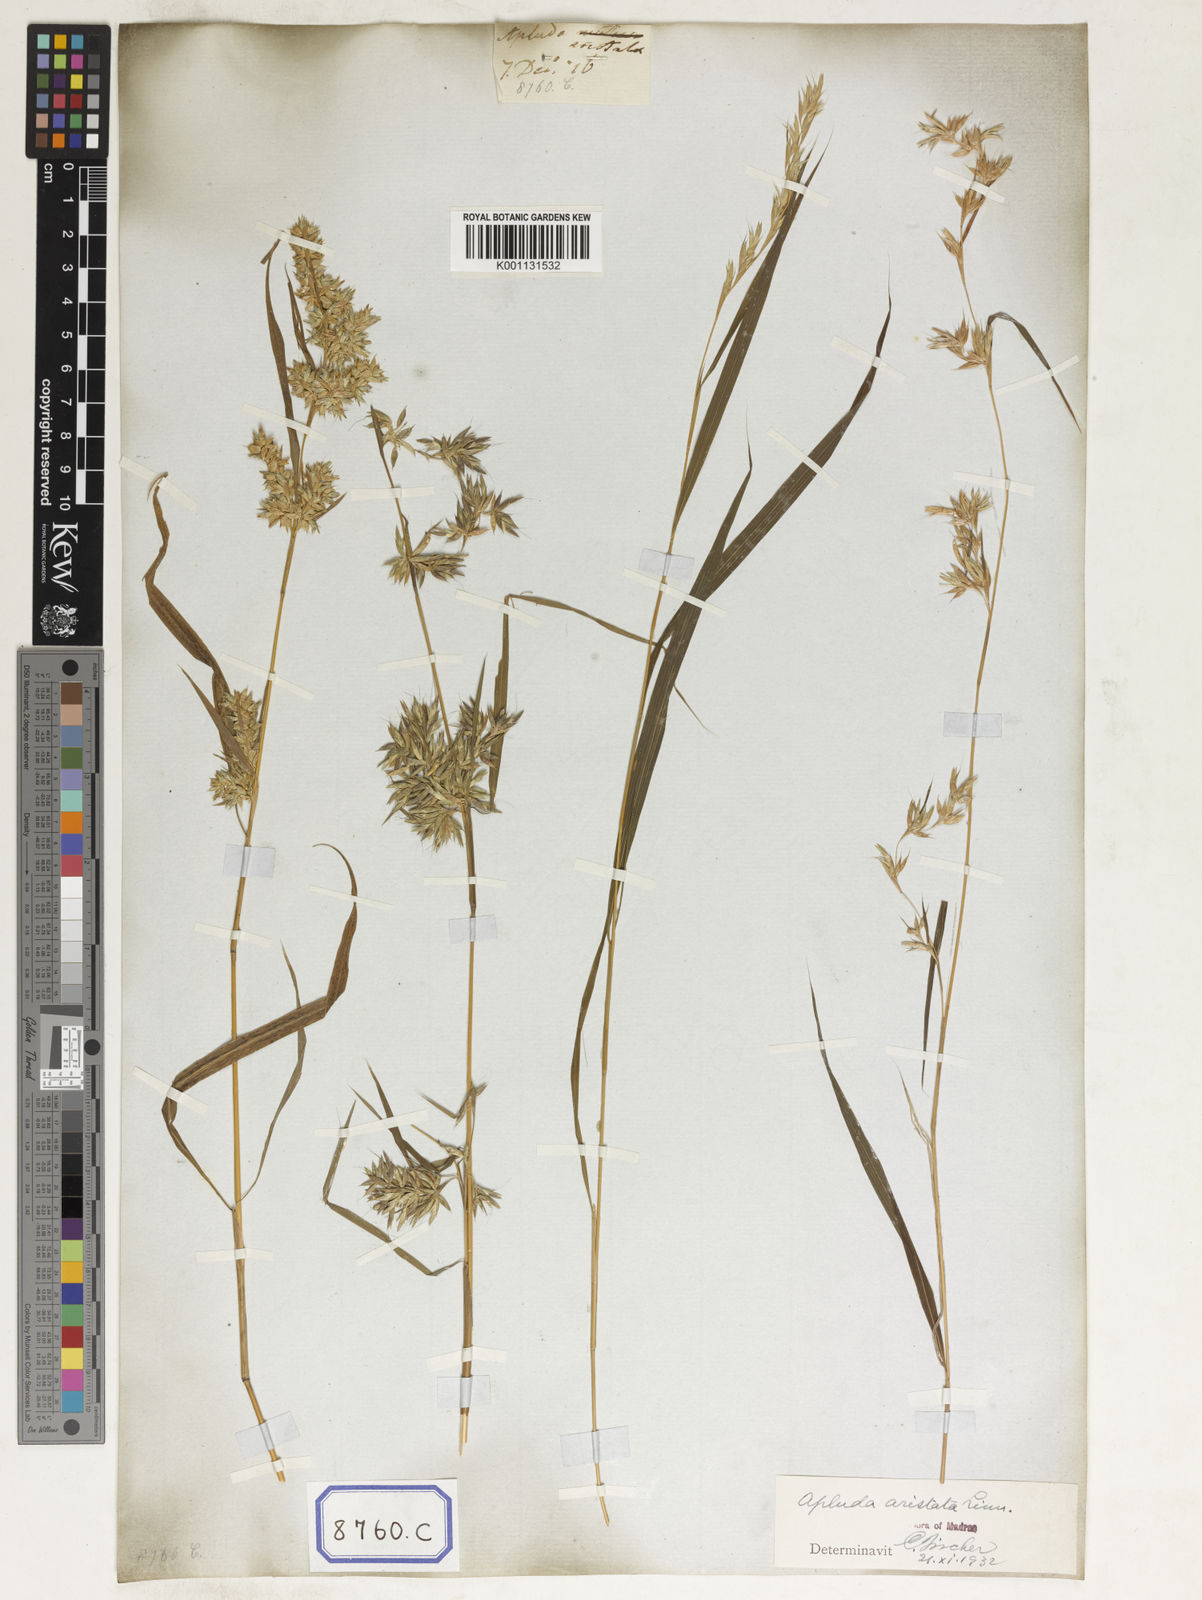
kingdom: Plantae
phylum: Tracheophyta
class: Liliopsida
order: Poales
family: Poaceae
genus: Apluda
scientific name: Apluda
